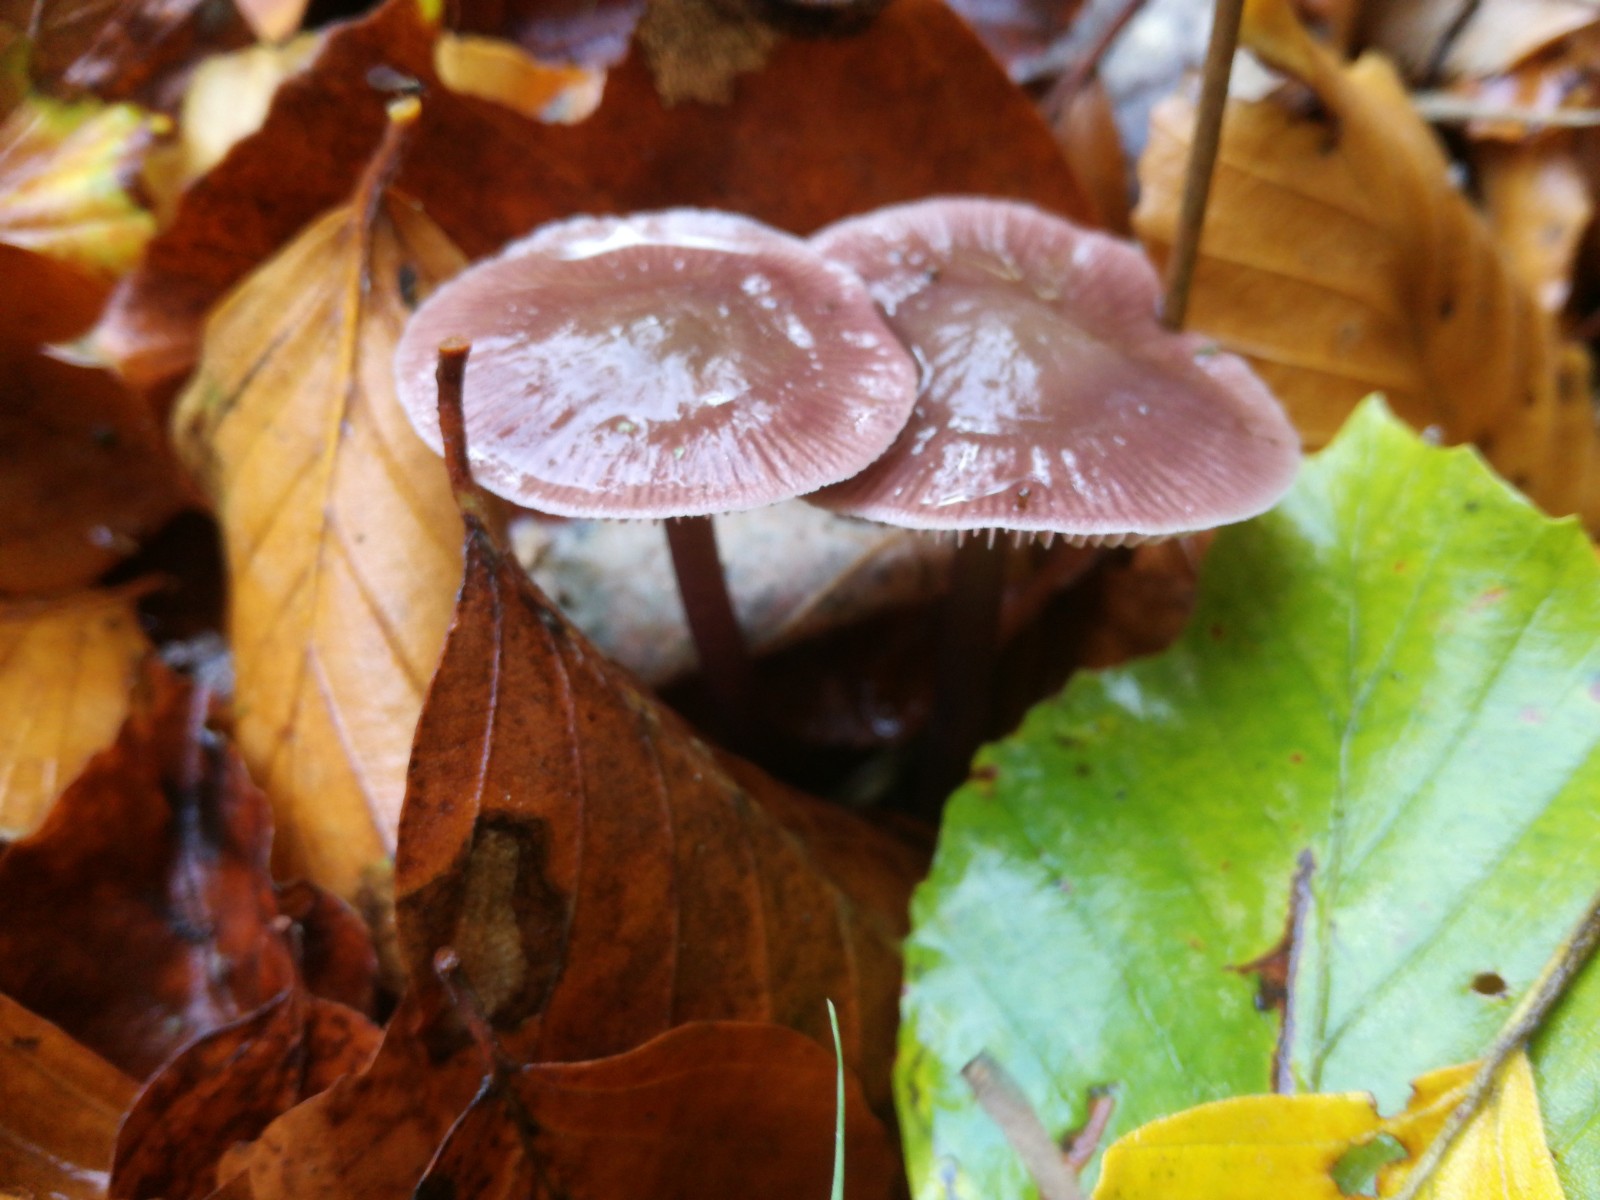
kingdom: Fungi
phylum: Basidiomycota
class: Agaricomycetes
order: Agaricales
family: Mycenaceae
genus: Prunulus
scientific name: Prunulus diosmus
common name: tobaks-huesvamp
